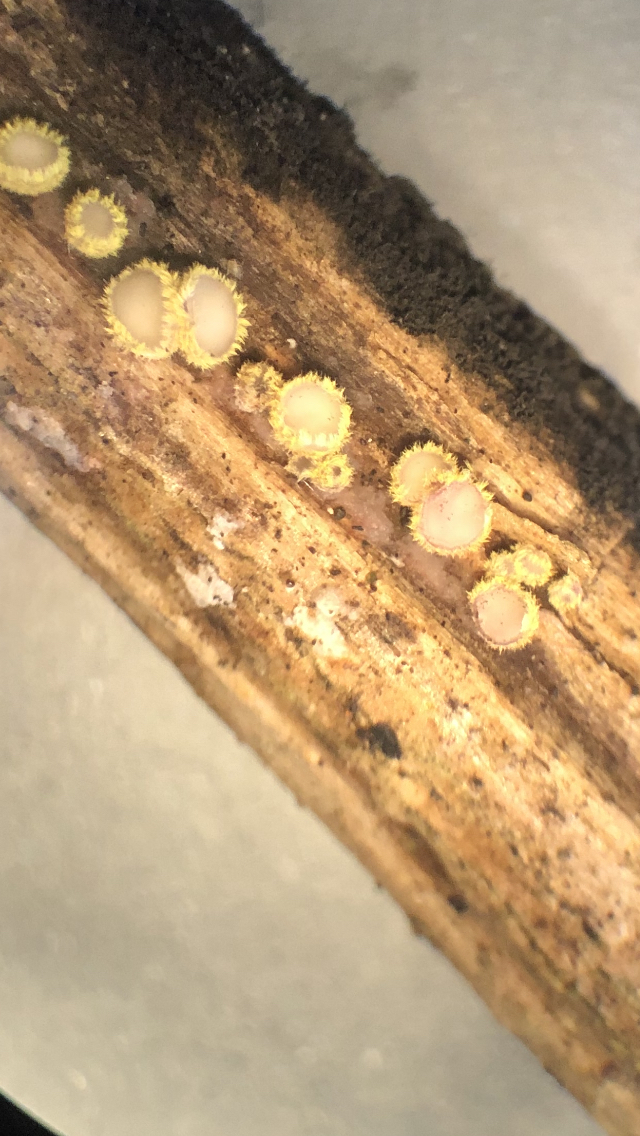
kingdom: Fungi
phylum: Ascomycota
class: Leotiomycetes
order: Helotiales
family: Lachnaceae
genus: Trichopeziza
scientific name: Trichopeziza
